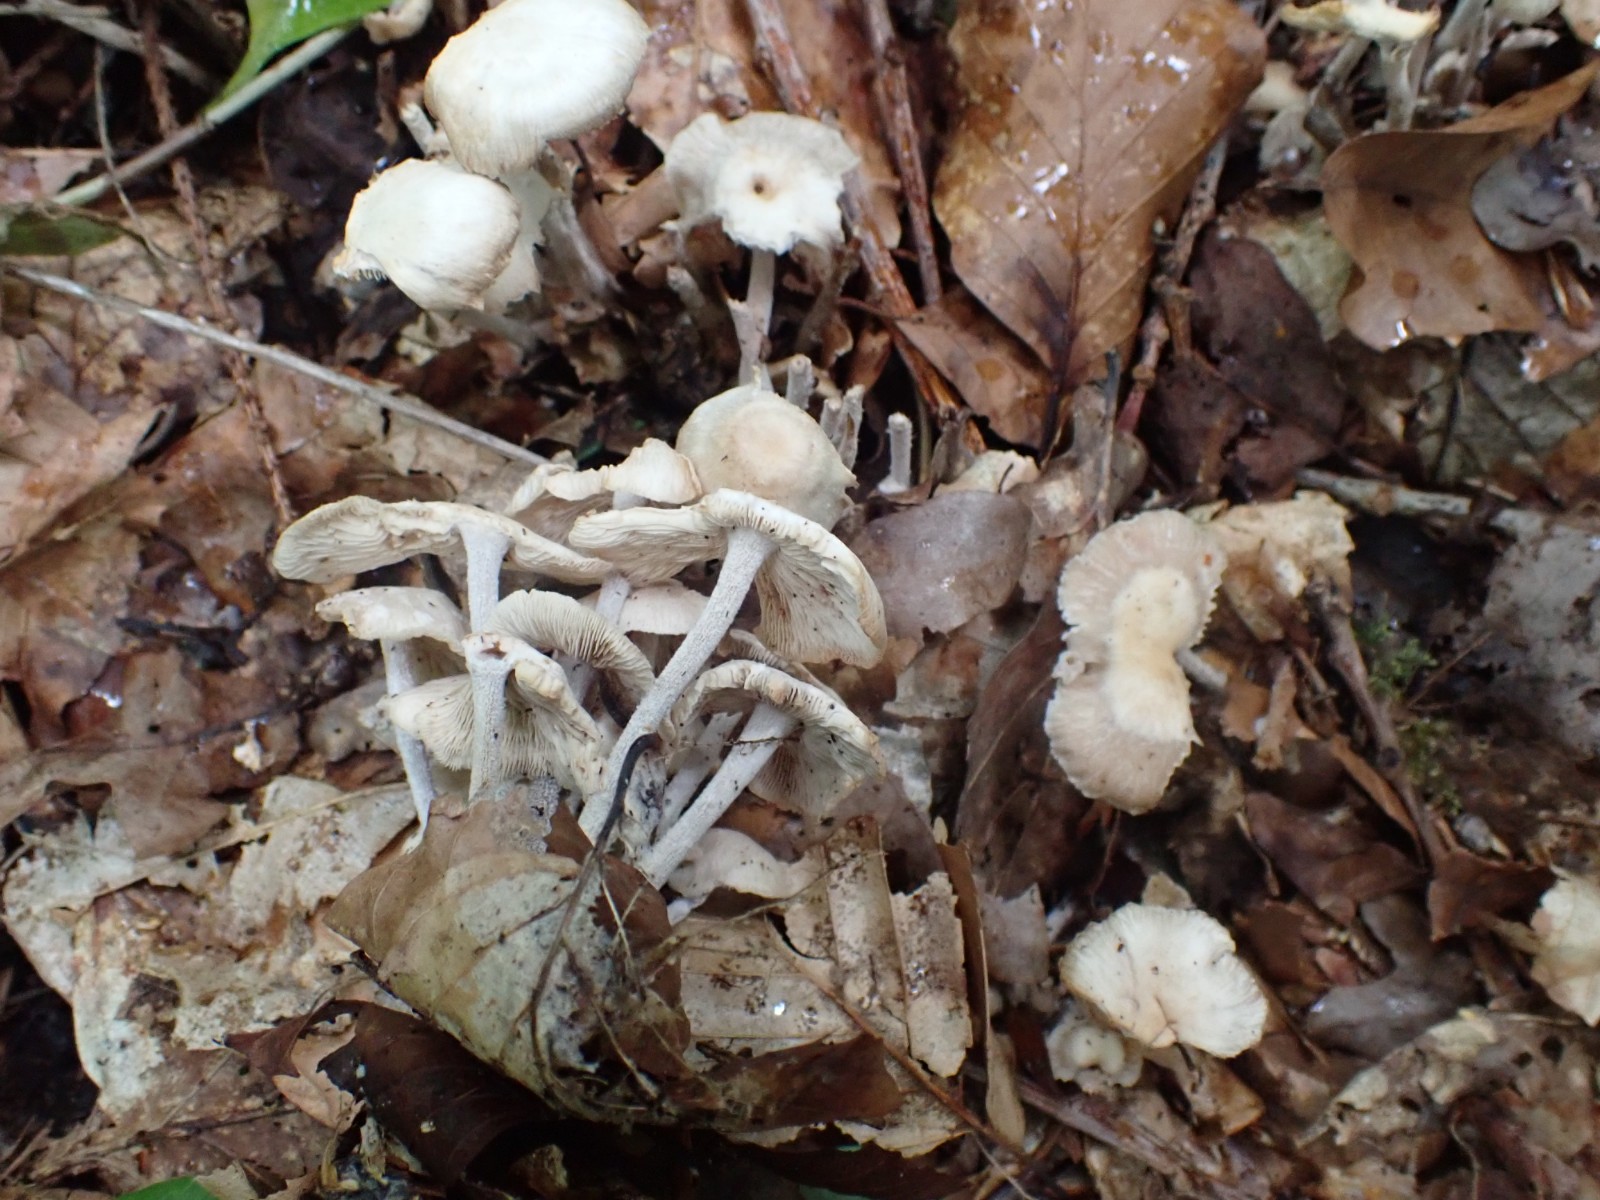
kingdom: Fungi
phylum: Basidiomycota
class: Agaricomycetes
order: Agaricales
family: Omphalotaceae
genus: Collybiopsis
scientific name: Collybiopsis confluens
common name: knippe-fladhat
